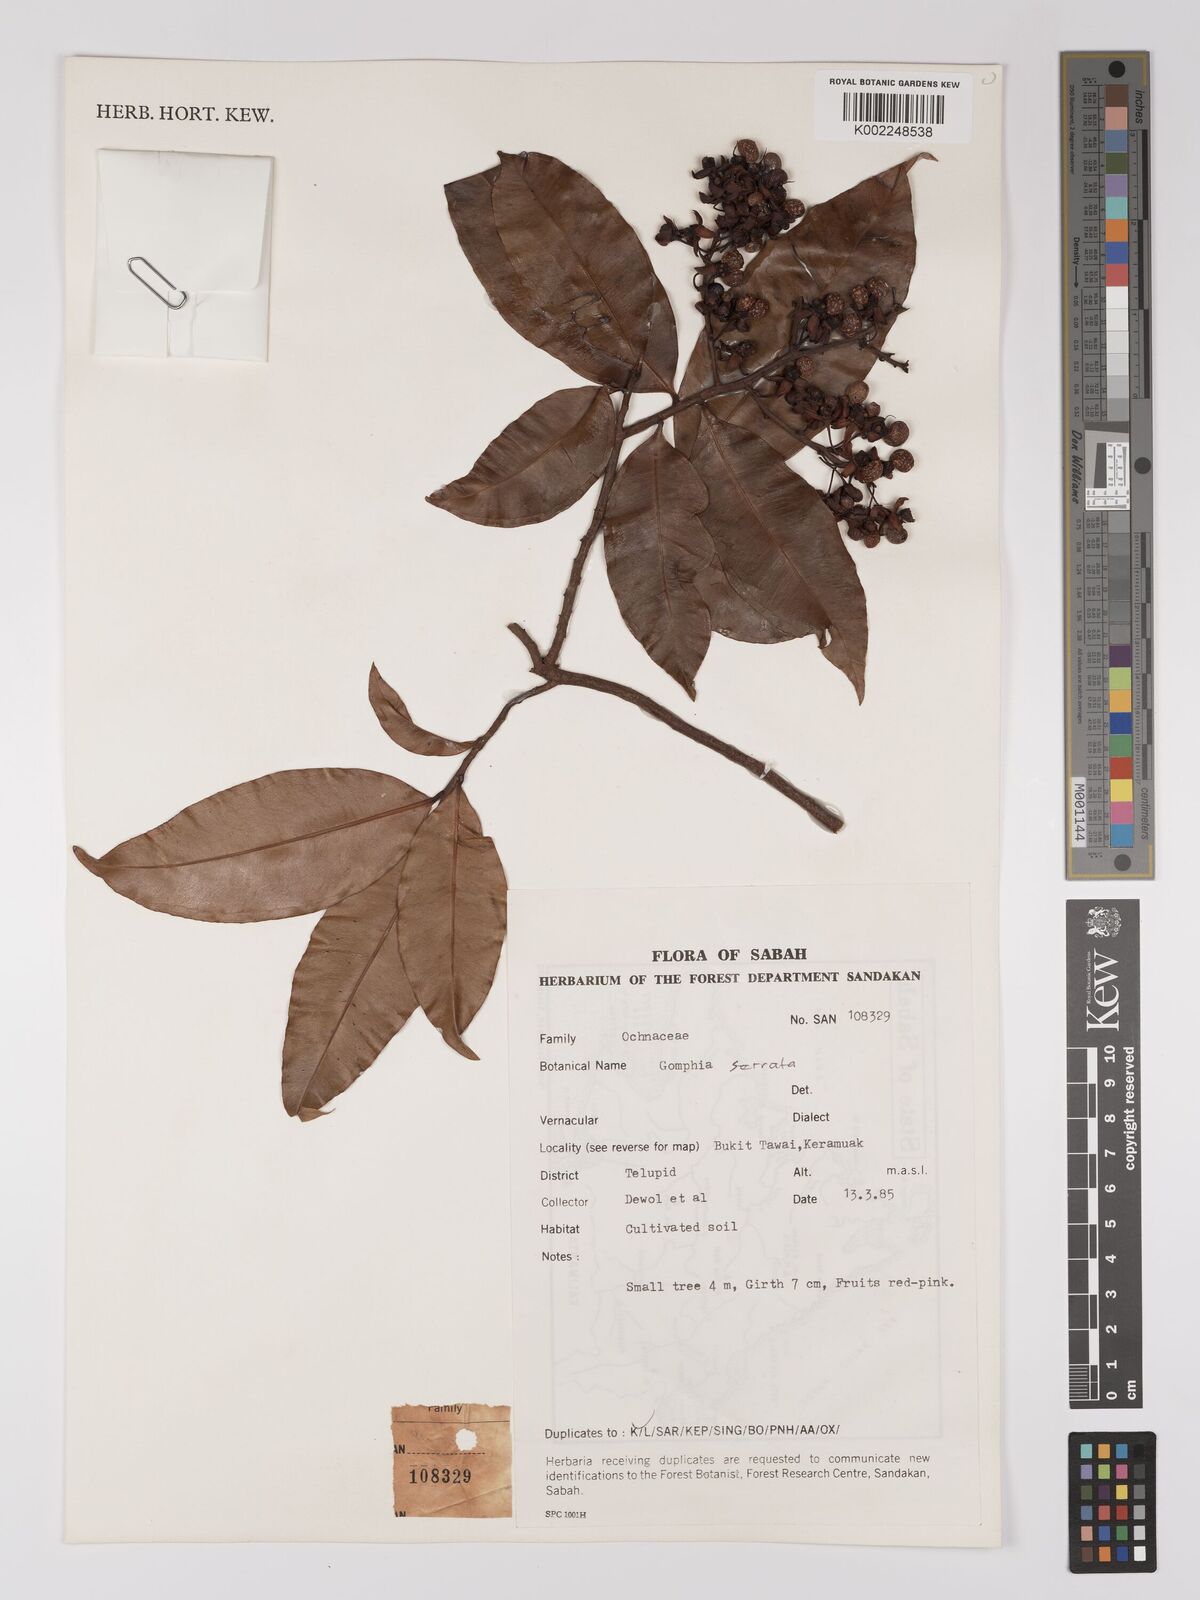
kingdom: Plantae
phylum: Tracheophyta
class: Magnoliopsida
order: Malpighiales
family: Ochnaceae
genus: Gomphia
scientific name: Gomphia serrata
